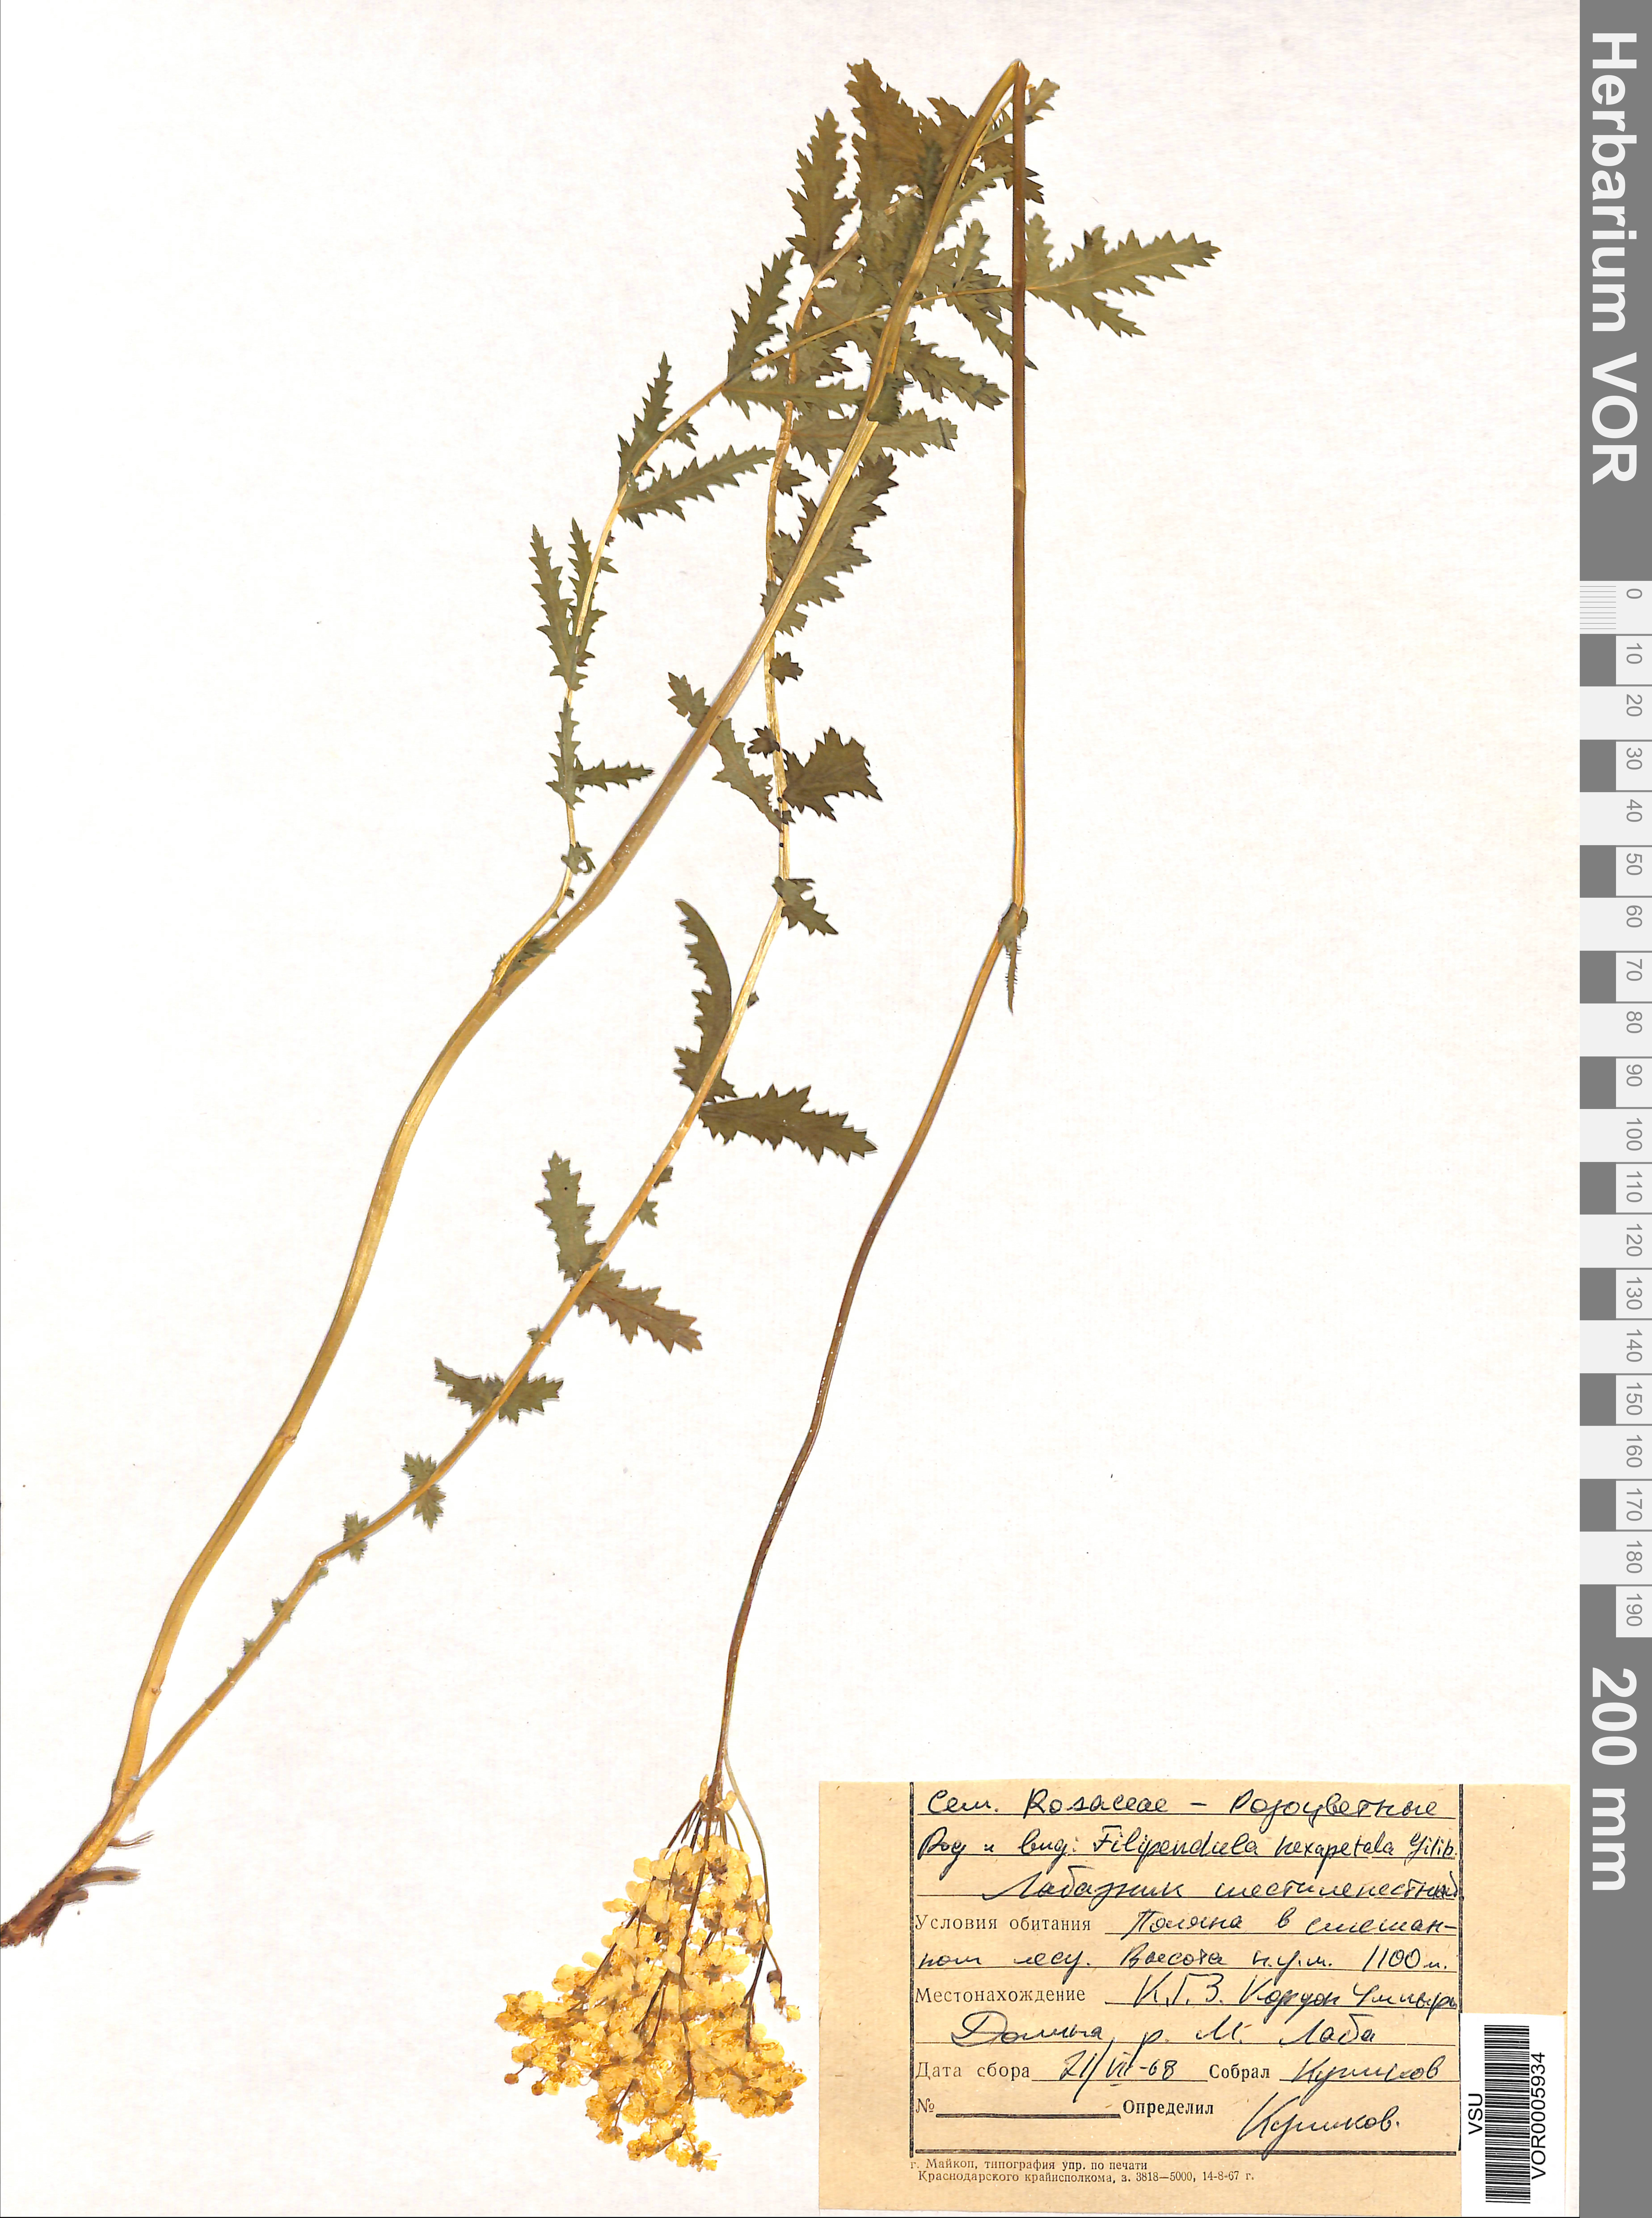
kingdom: Plantae
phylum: Tracheophyta
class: Magnoliopsida
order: Rosales
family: Rosaceae
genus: Filipendula
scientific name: Filipendula vulgaris
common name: Dropwort
